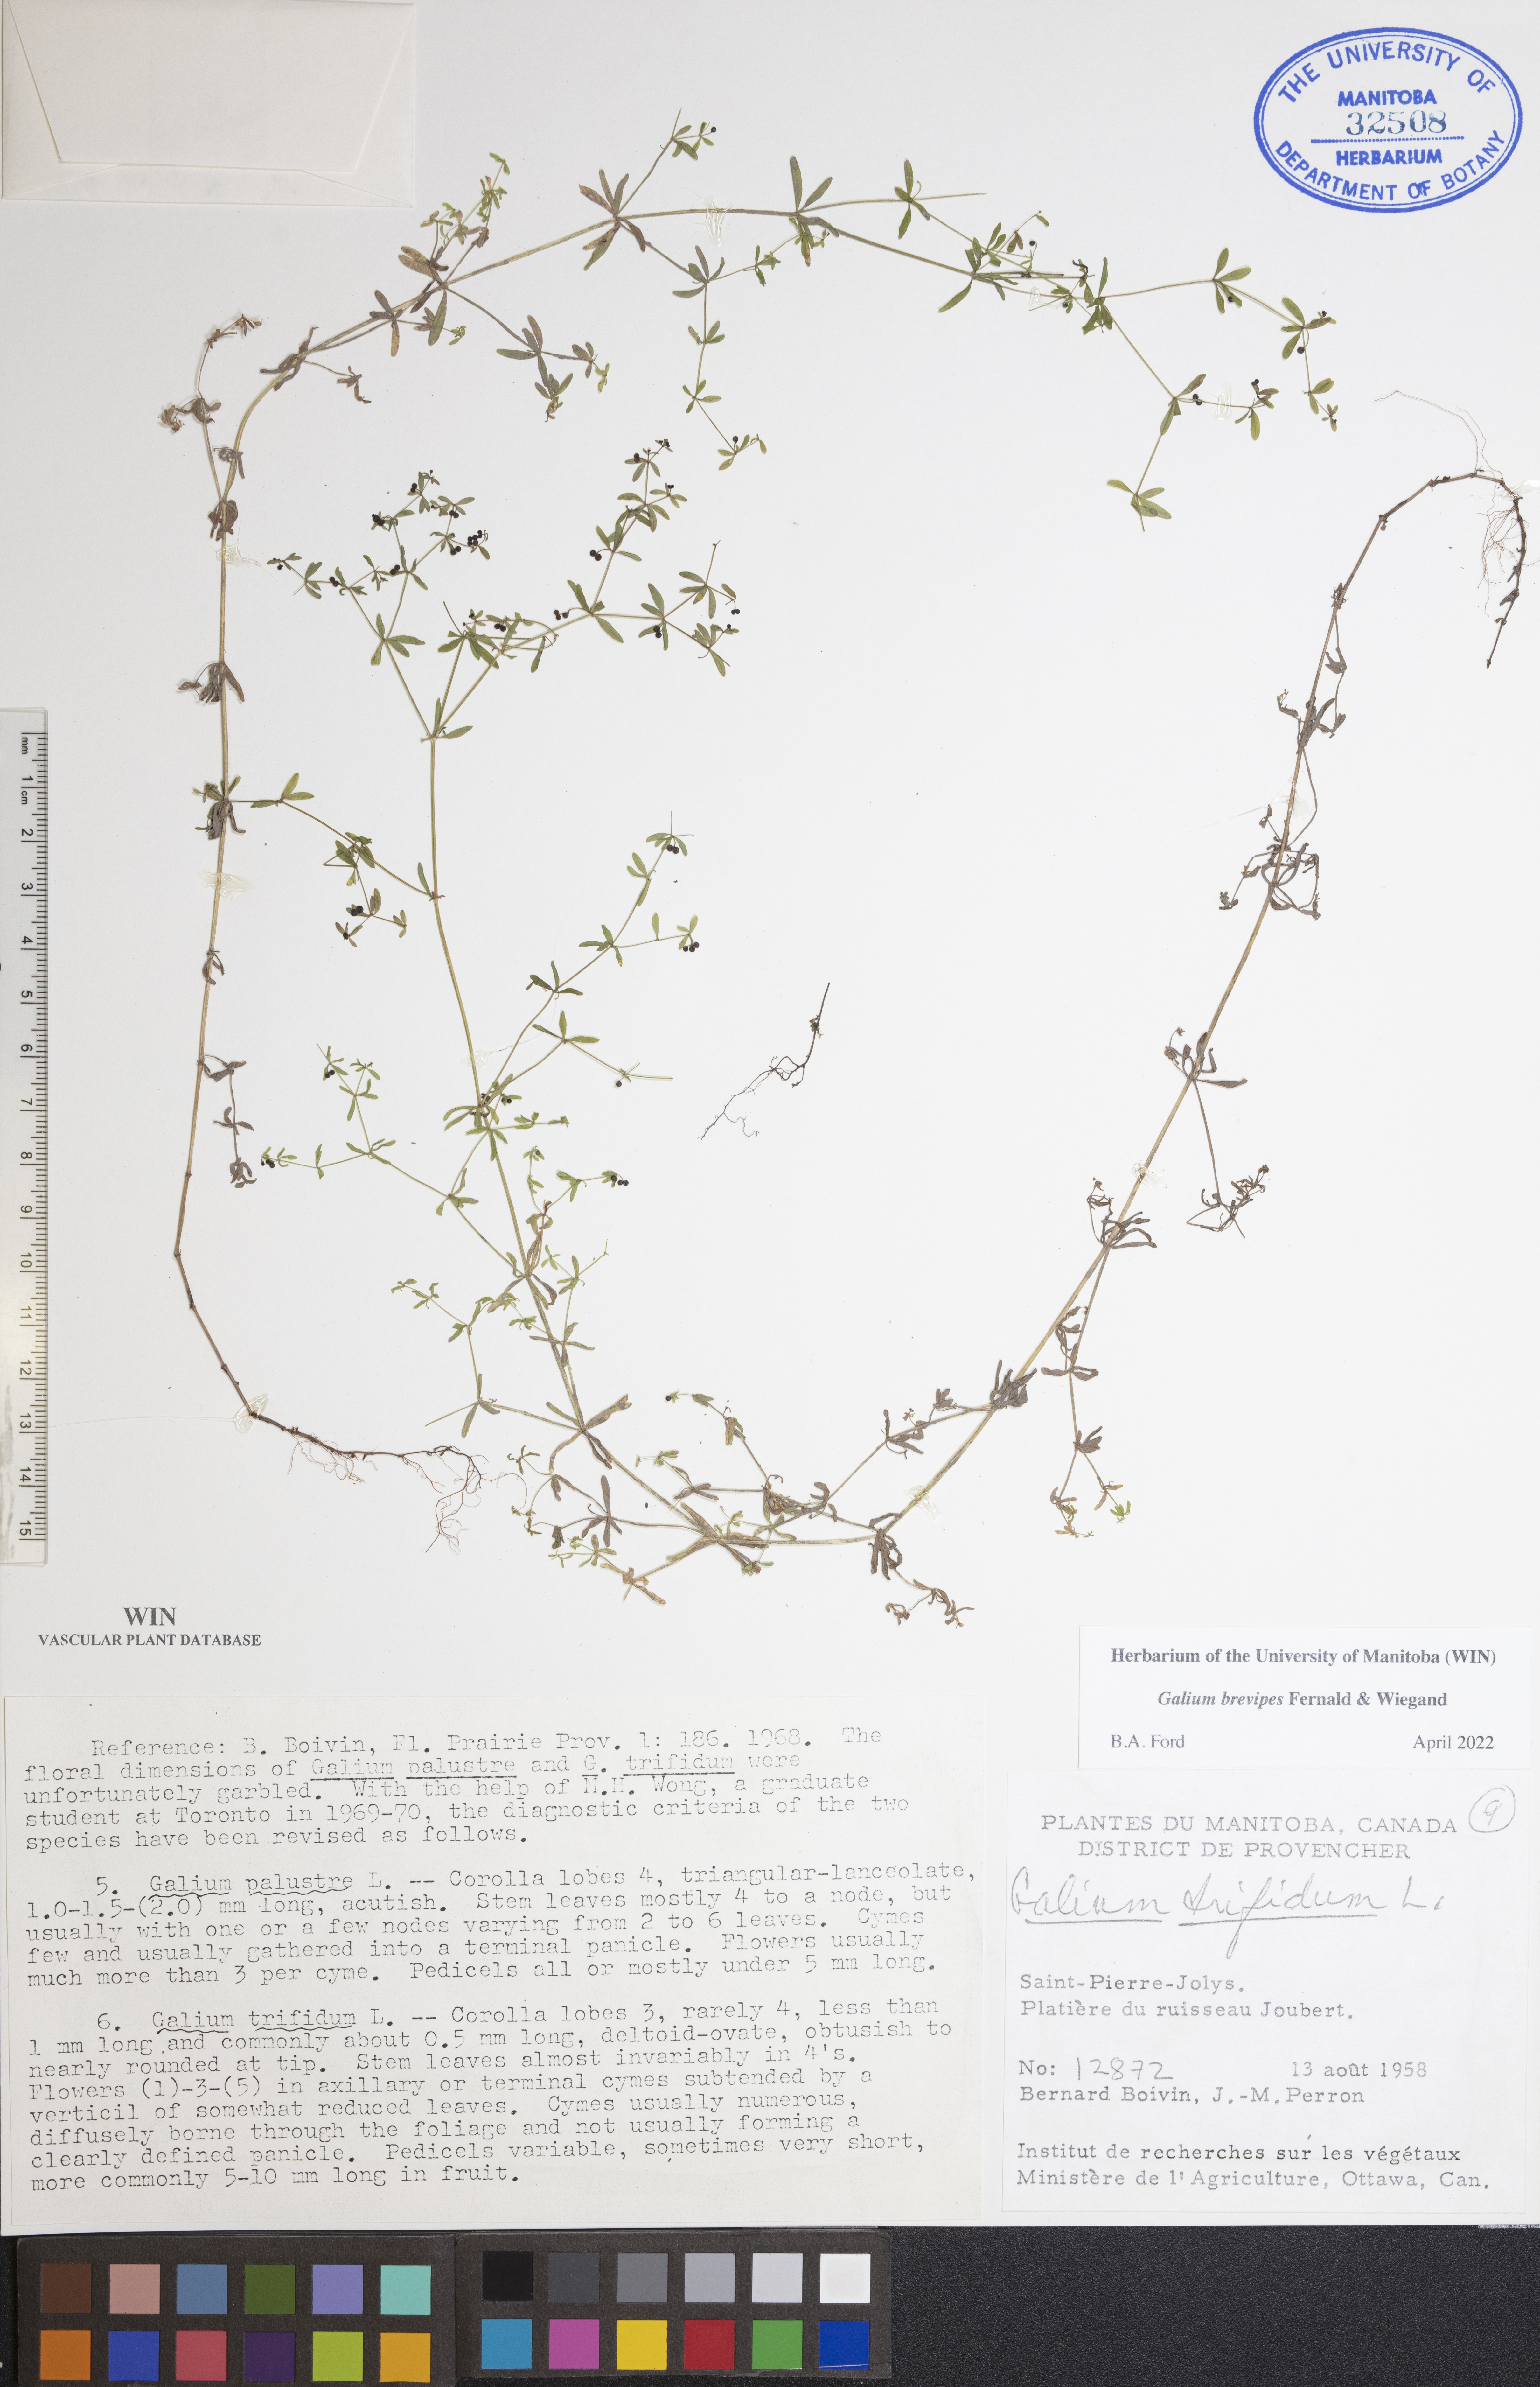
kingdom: Plantae
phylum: Tracheophyta
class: Magnoliopsida
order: Gentianales
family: Rubiaceae
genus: Galium
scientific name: Galium domingense
